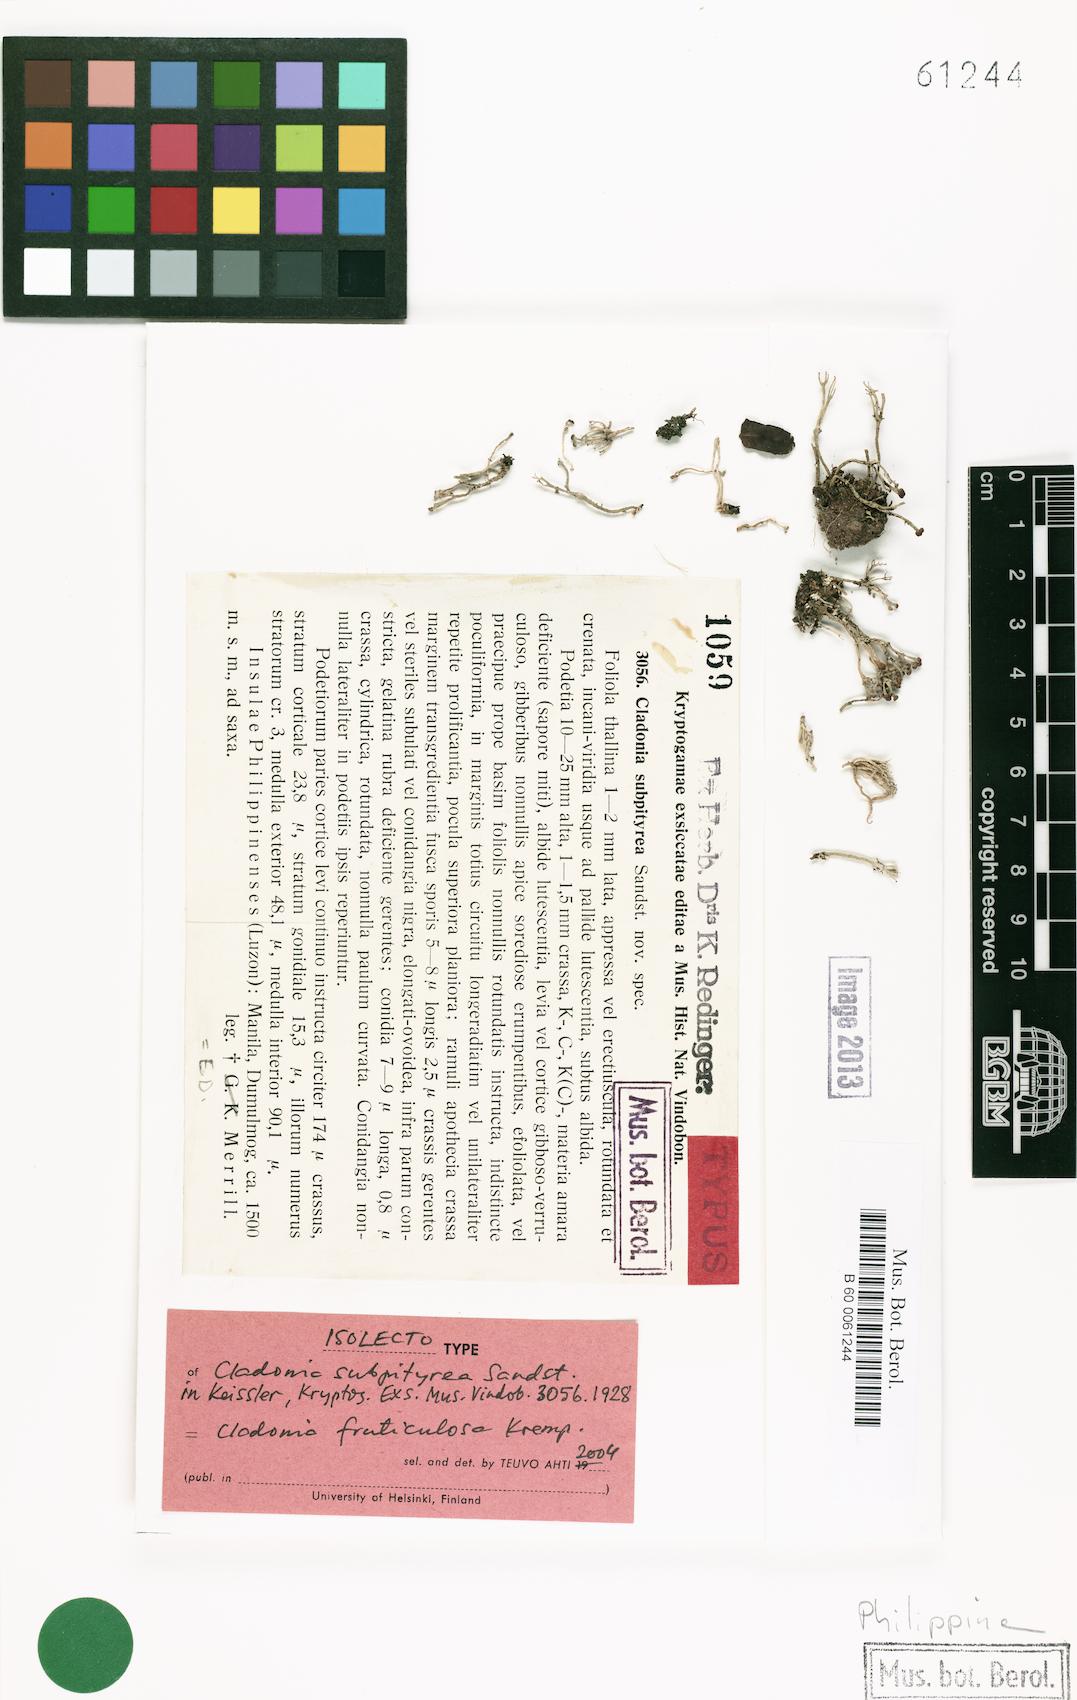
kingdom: Fungi
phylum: Ascomycota
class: Lecanoromycetes
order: Lecanorales
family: Cladoniaceae
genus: Cladonia
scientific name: Cladonia subpityrea
